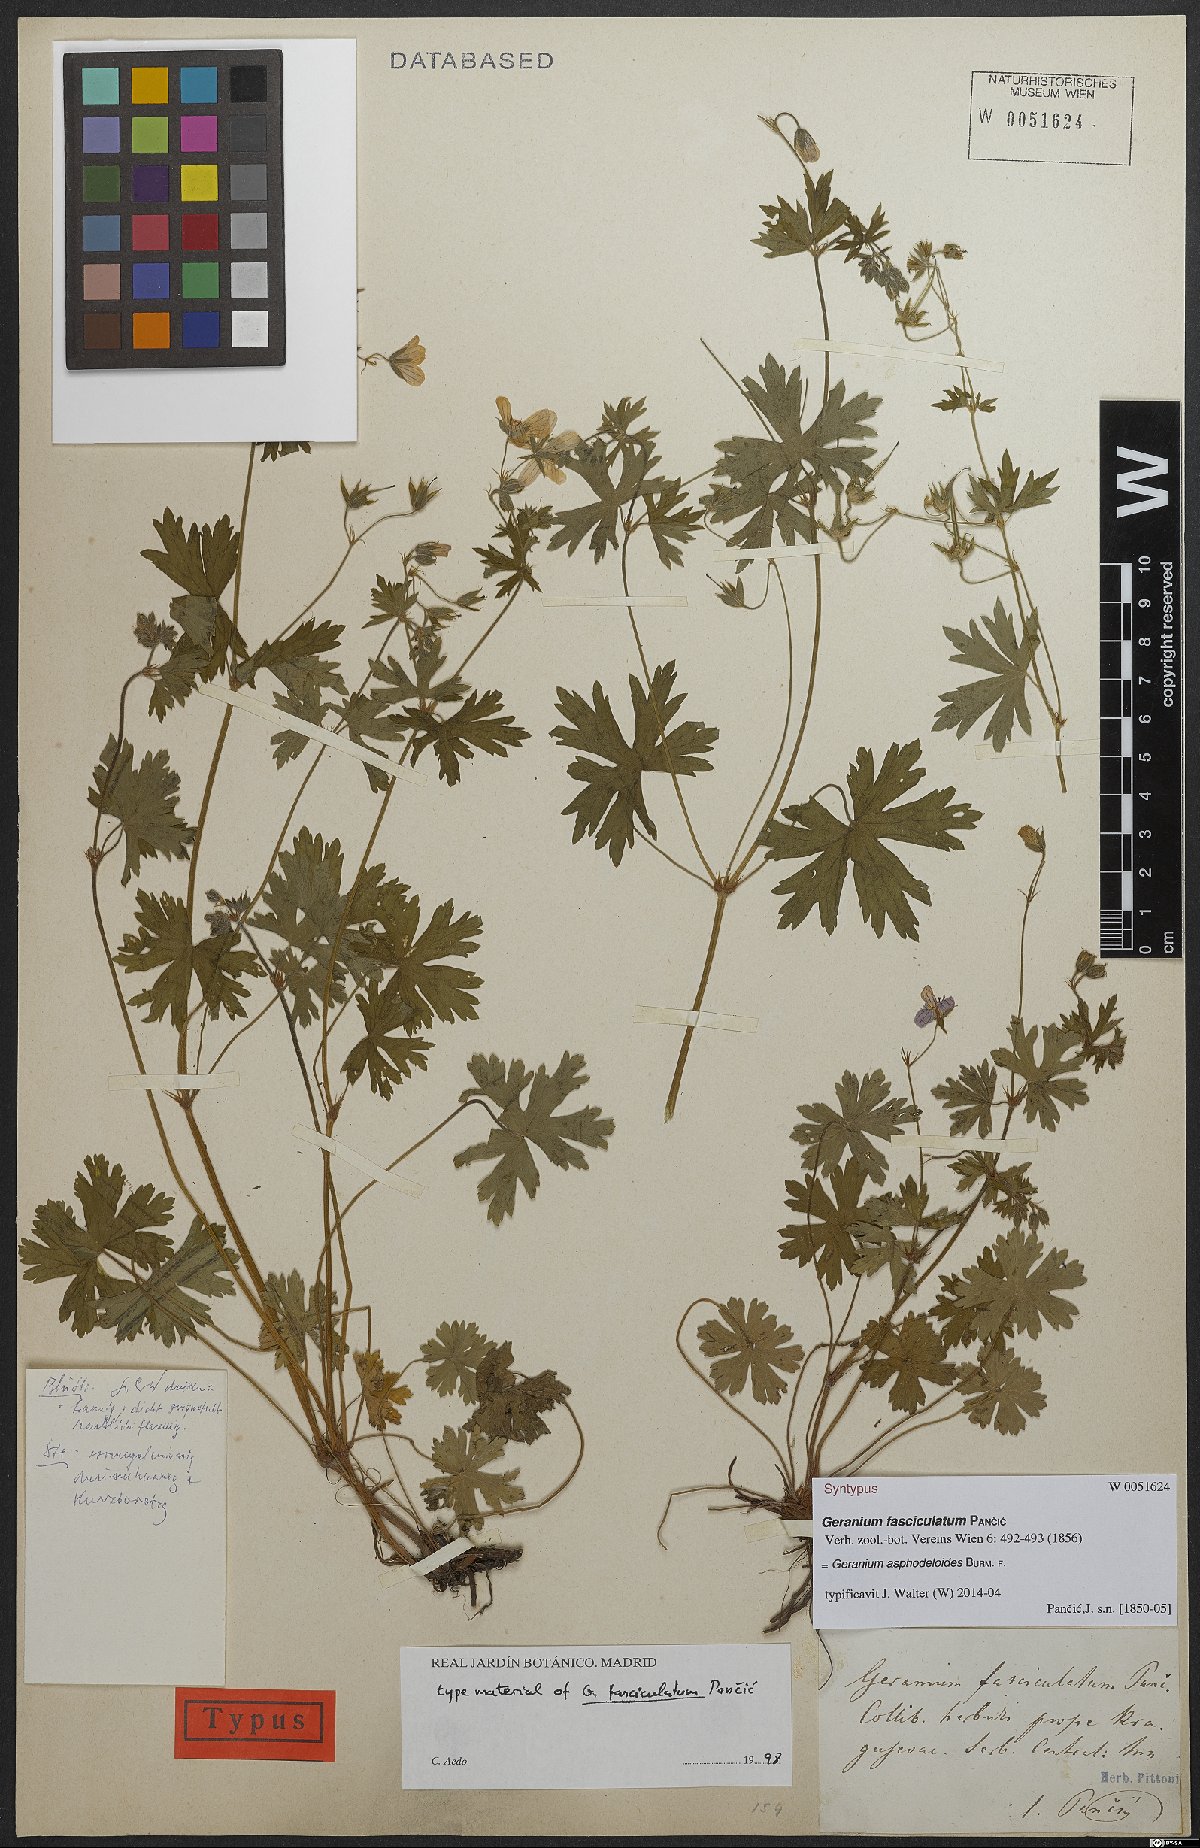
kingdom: Plantae
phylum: Tracheophyta
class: Magnoliopsida
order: Geraniales
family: Geraniaceae
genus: Geranium
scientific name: Geranium asphodeloides
